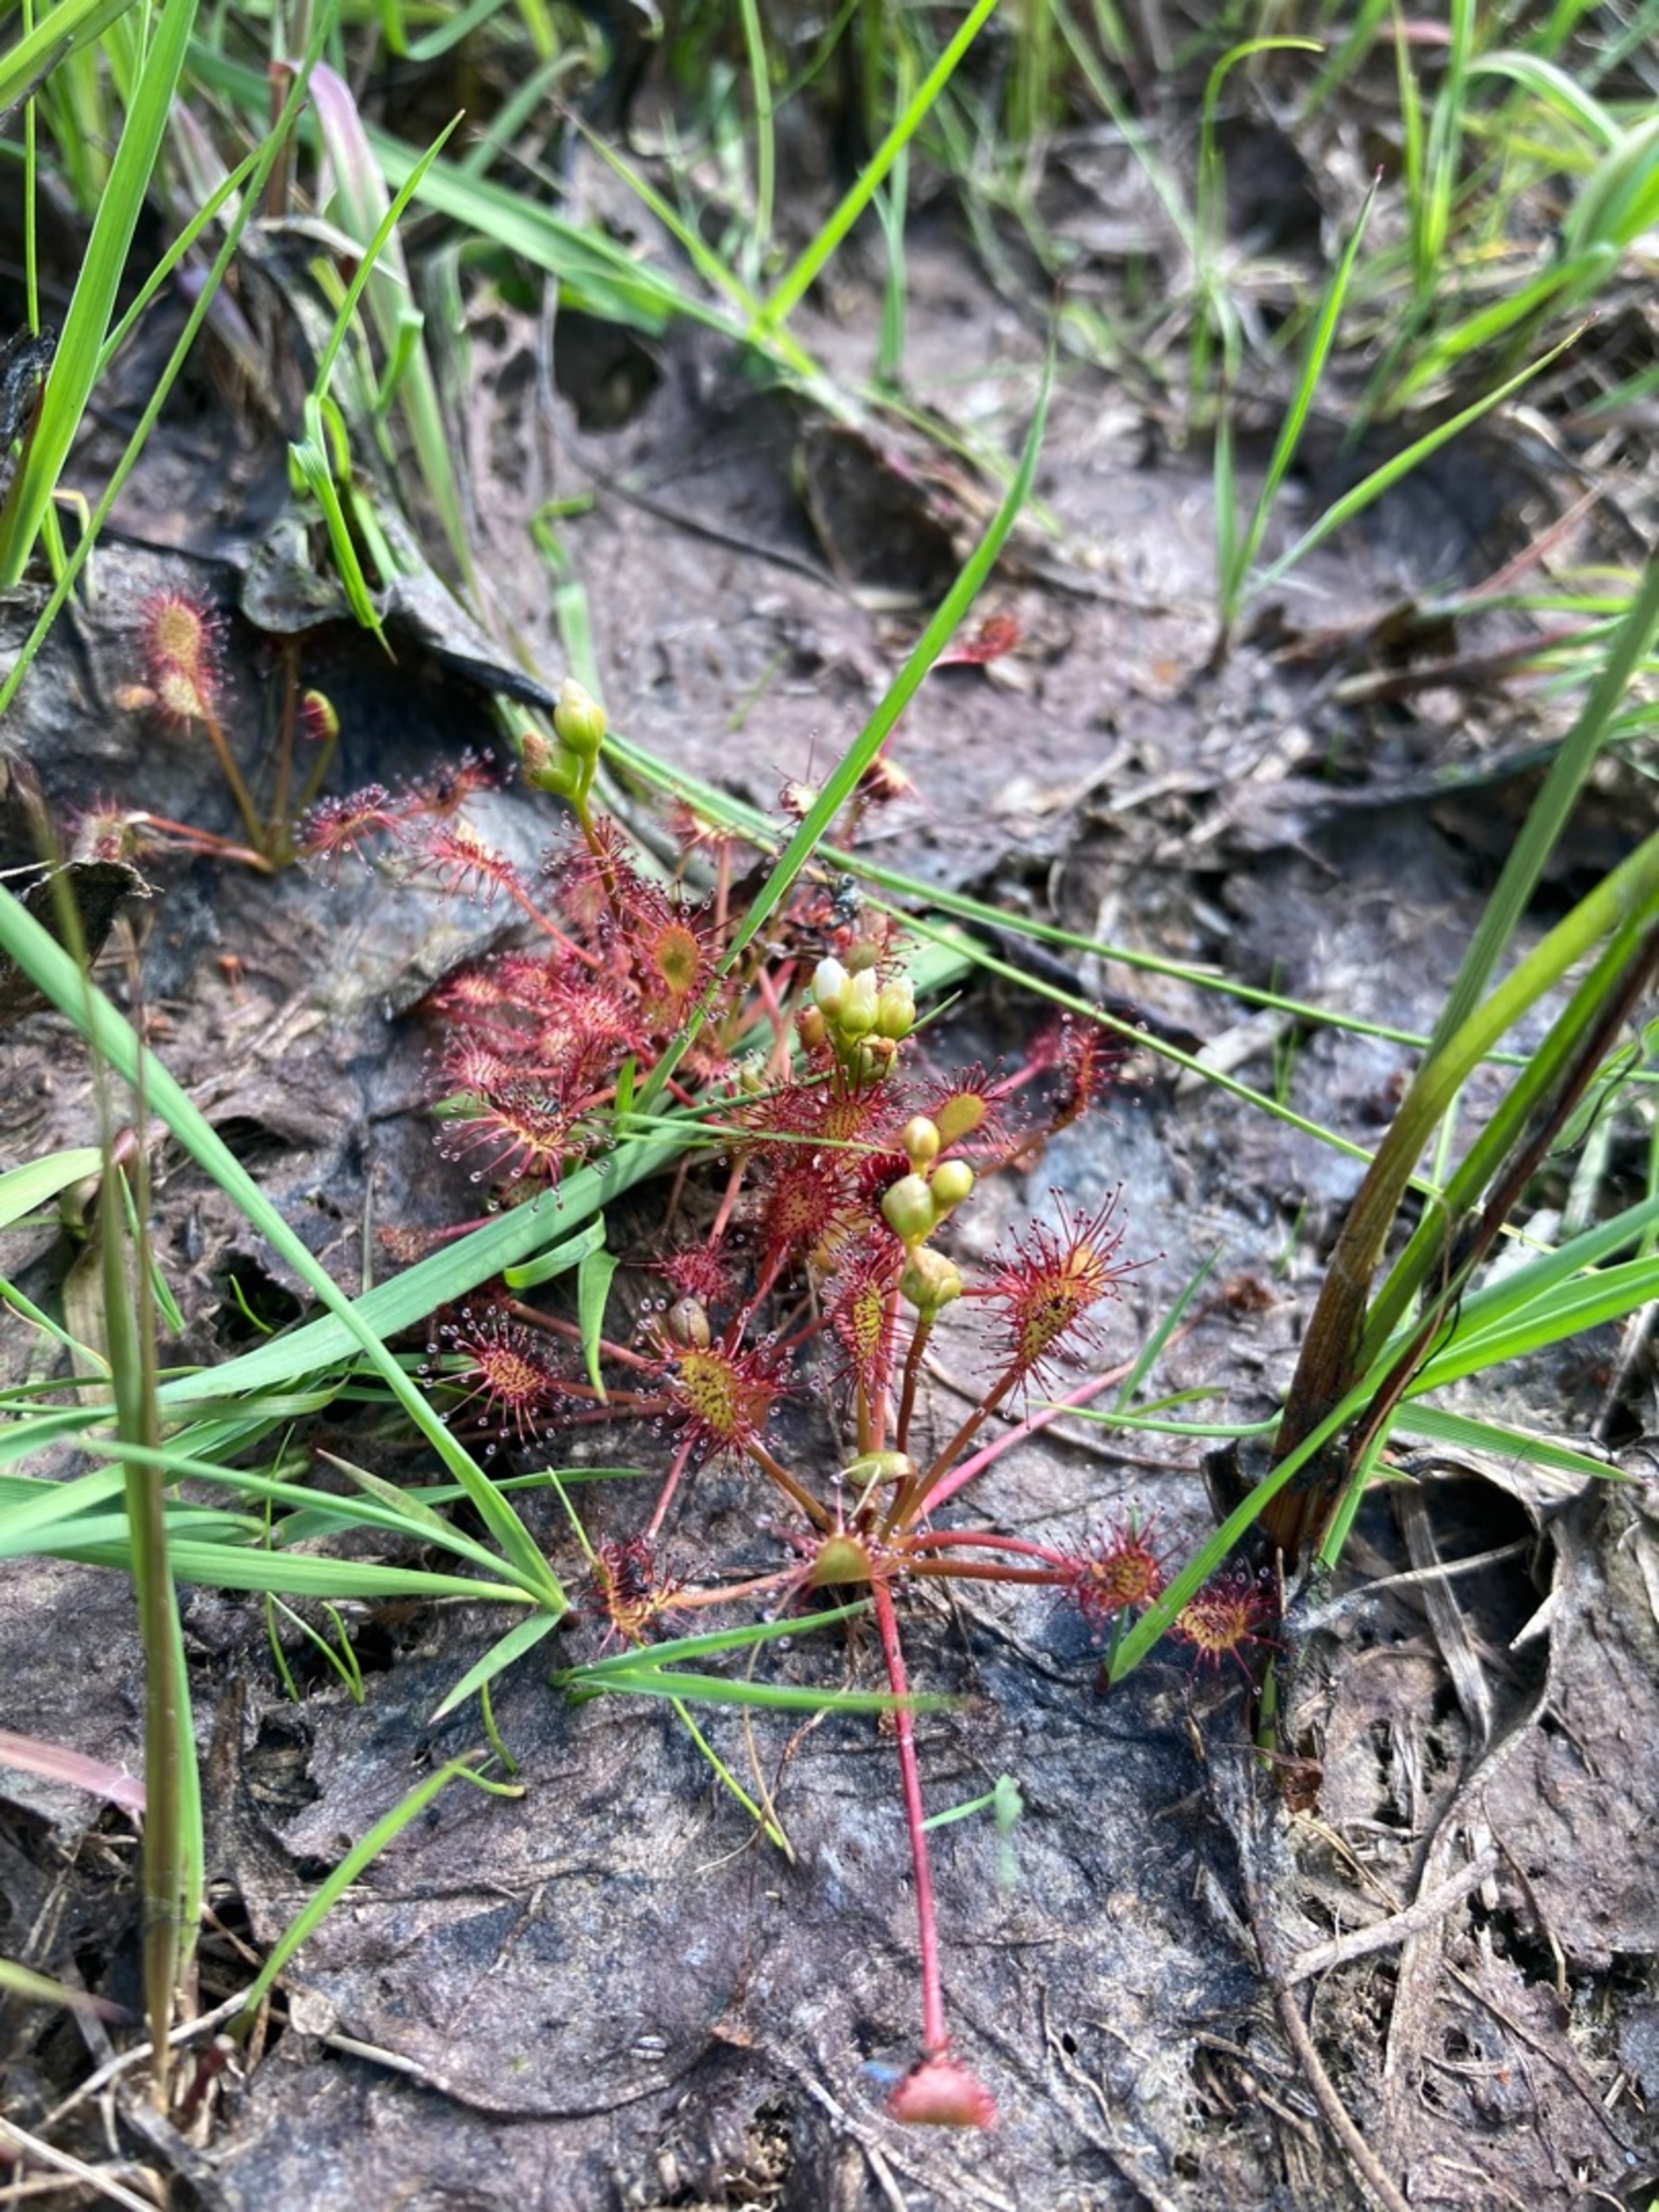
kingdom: Plantae
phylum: Tracheophyta
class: Magnoliopsida
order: Caryophyllales
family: Droseraceae
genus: Drosera
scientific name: Drosera intermedia
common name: Liden soldug
